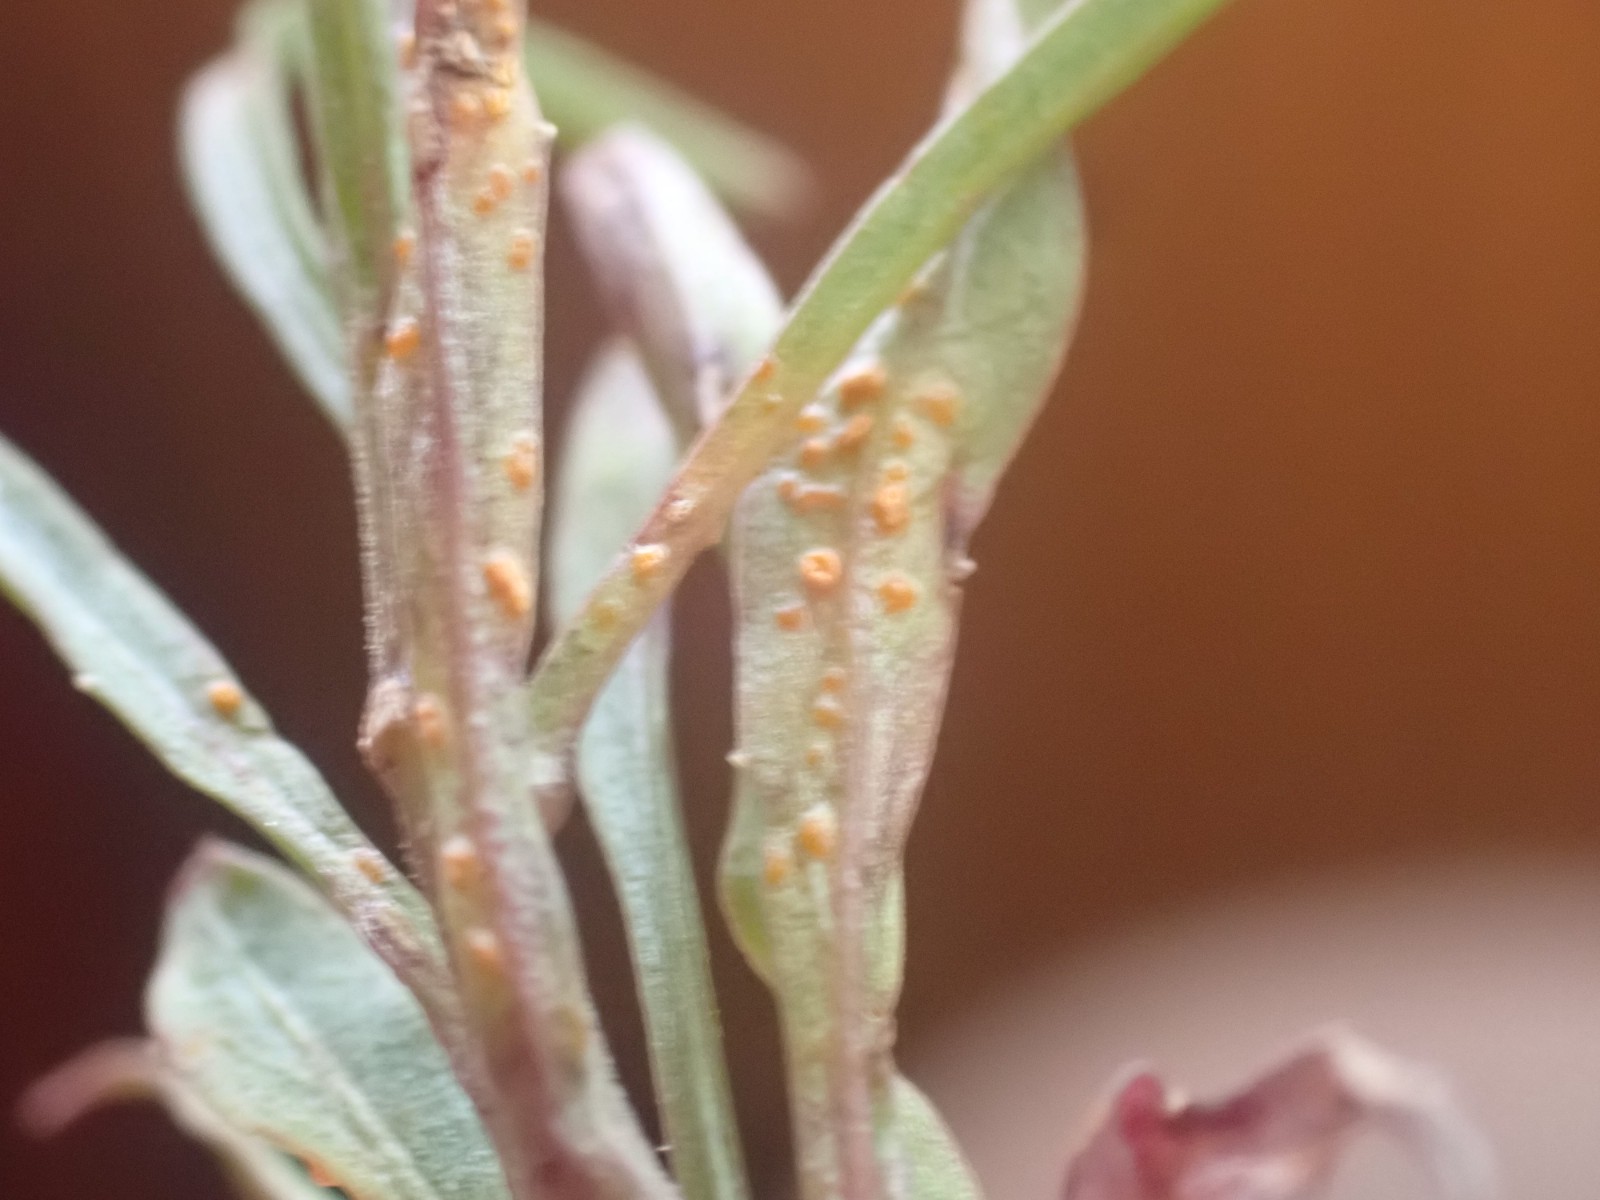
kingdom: Fungi
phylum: Basidiomycota
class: Pucciniomycetes
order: Pucciniales
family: Coleosporiaceae
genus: Coleosporium
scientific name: Coleosporium tussilaginis
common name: almindelig fyrrenålerust
